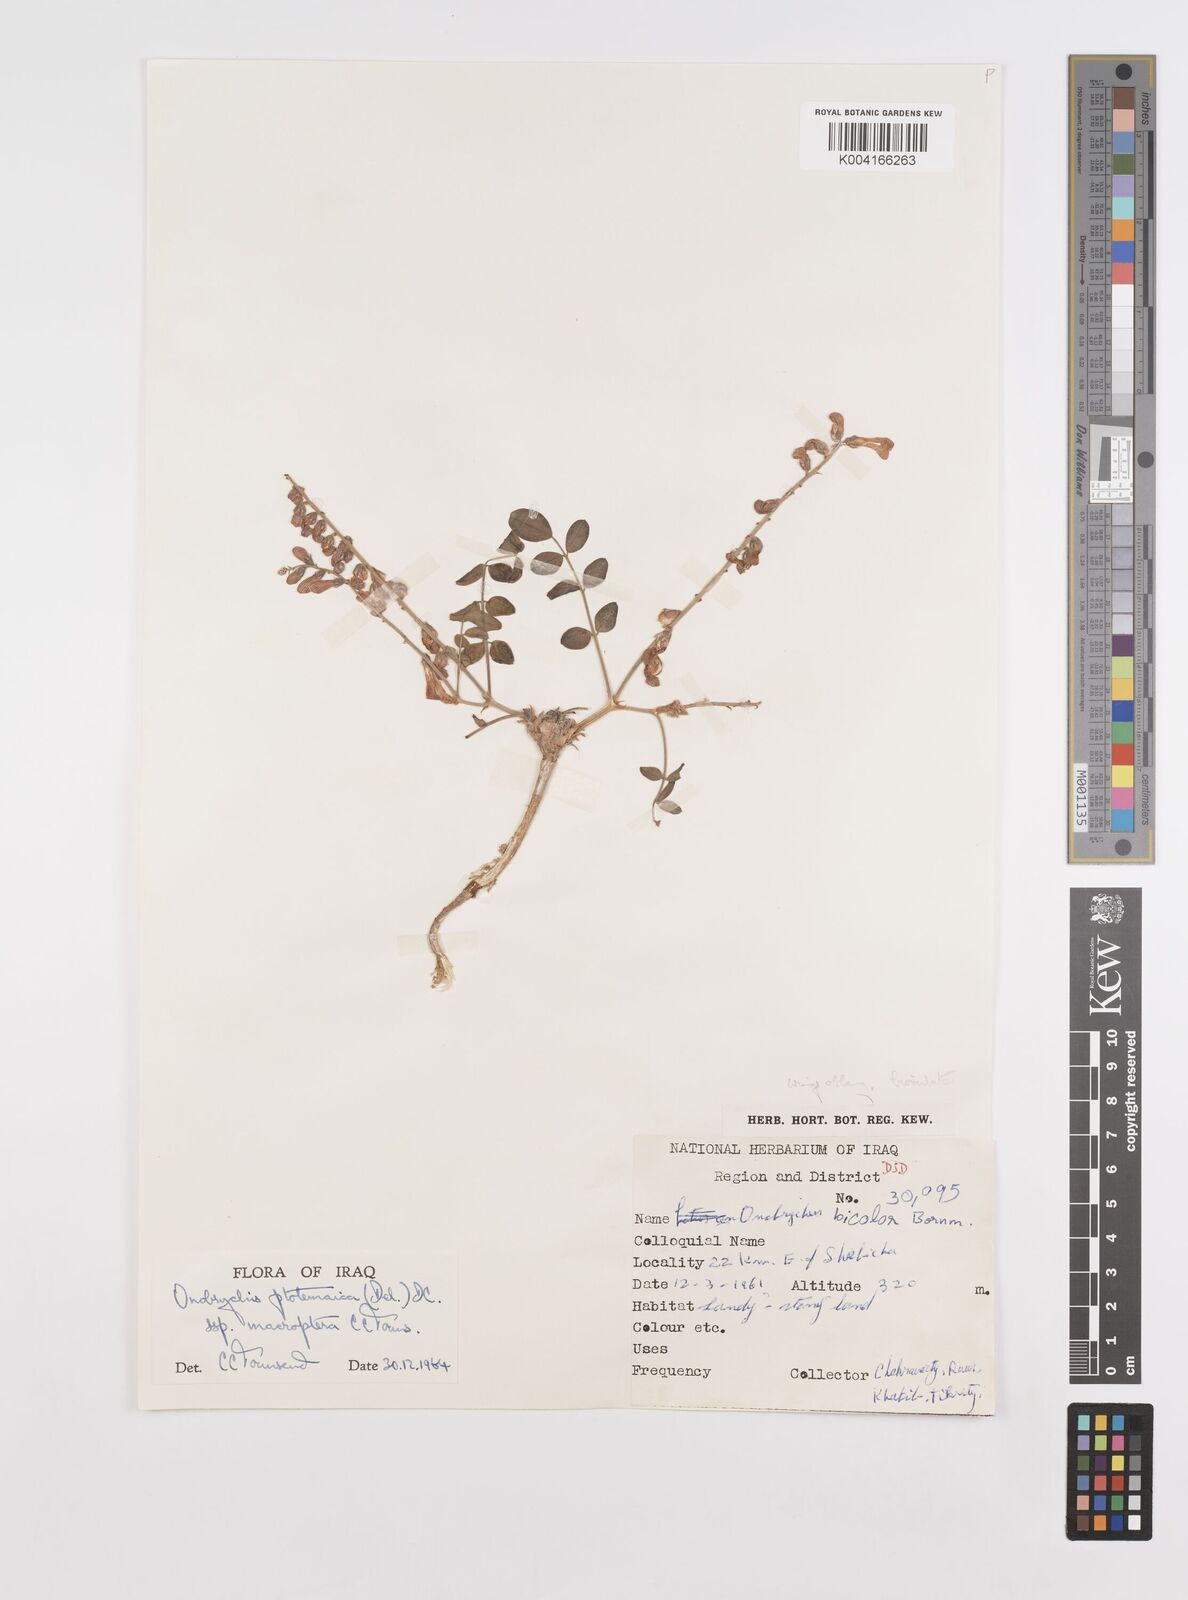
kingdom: Plantae
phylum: Tracheophyta
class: Magnoliopsida
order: Fabales
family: Fabaceae
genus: Onobrychis
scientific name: Onobrychis ptolemaica
